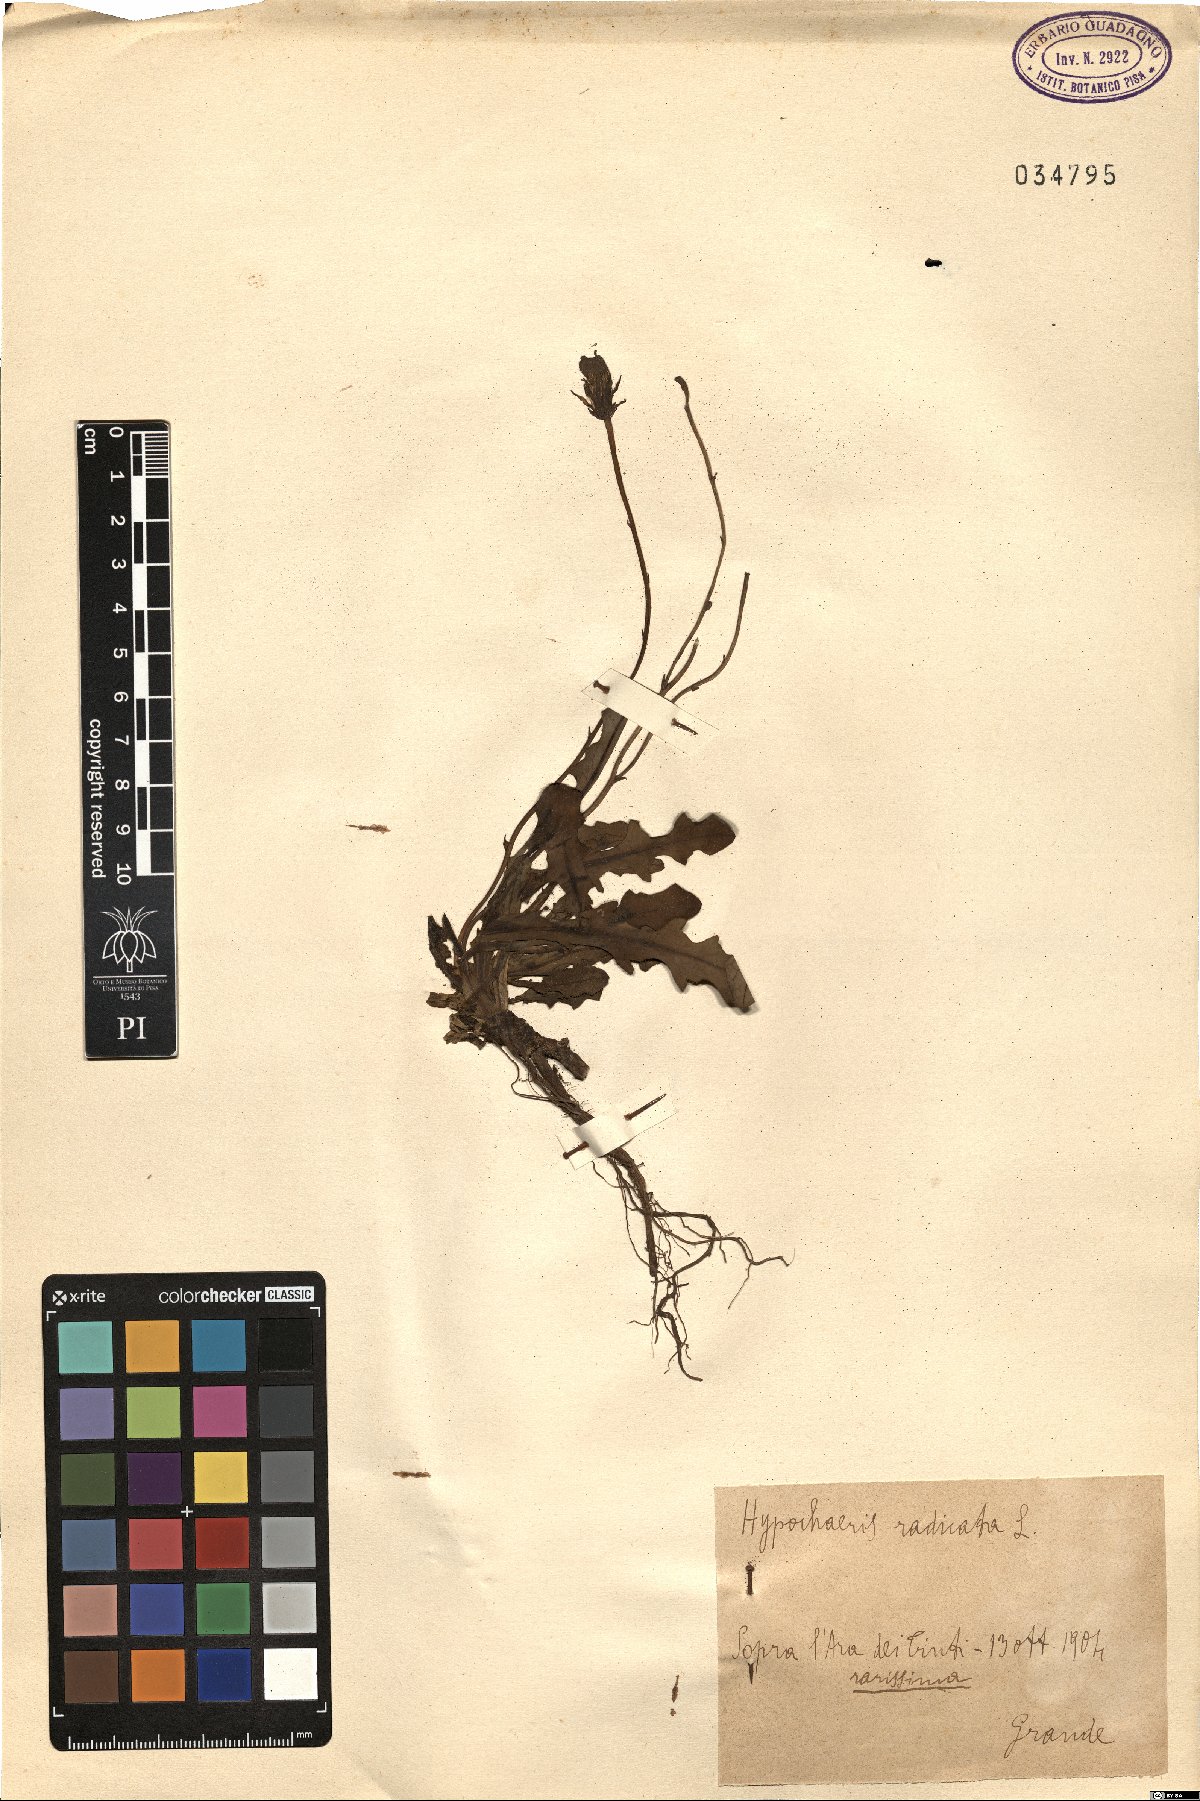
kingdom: Plantae
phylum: Tracheophyta
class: Magnoliopsida
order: Asterales
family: Asteraceae
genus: Hypochaeris
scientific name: Hypochaeris radicata
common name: Flatweed
